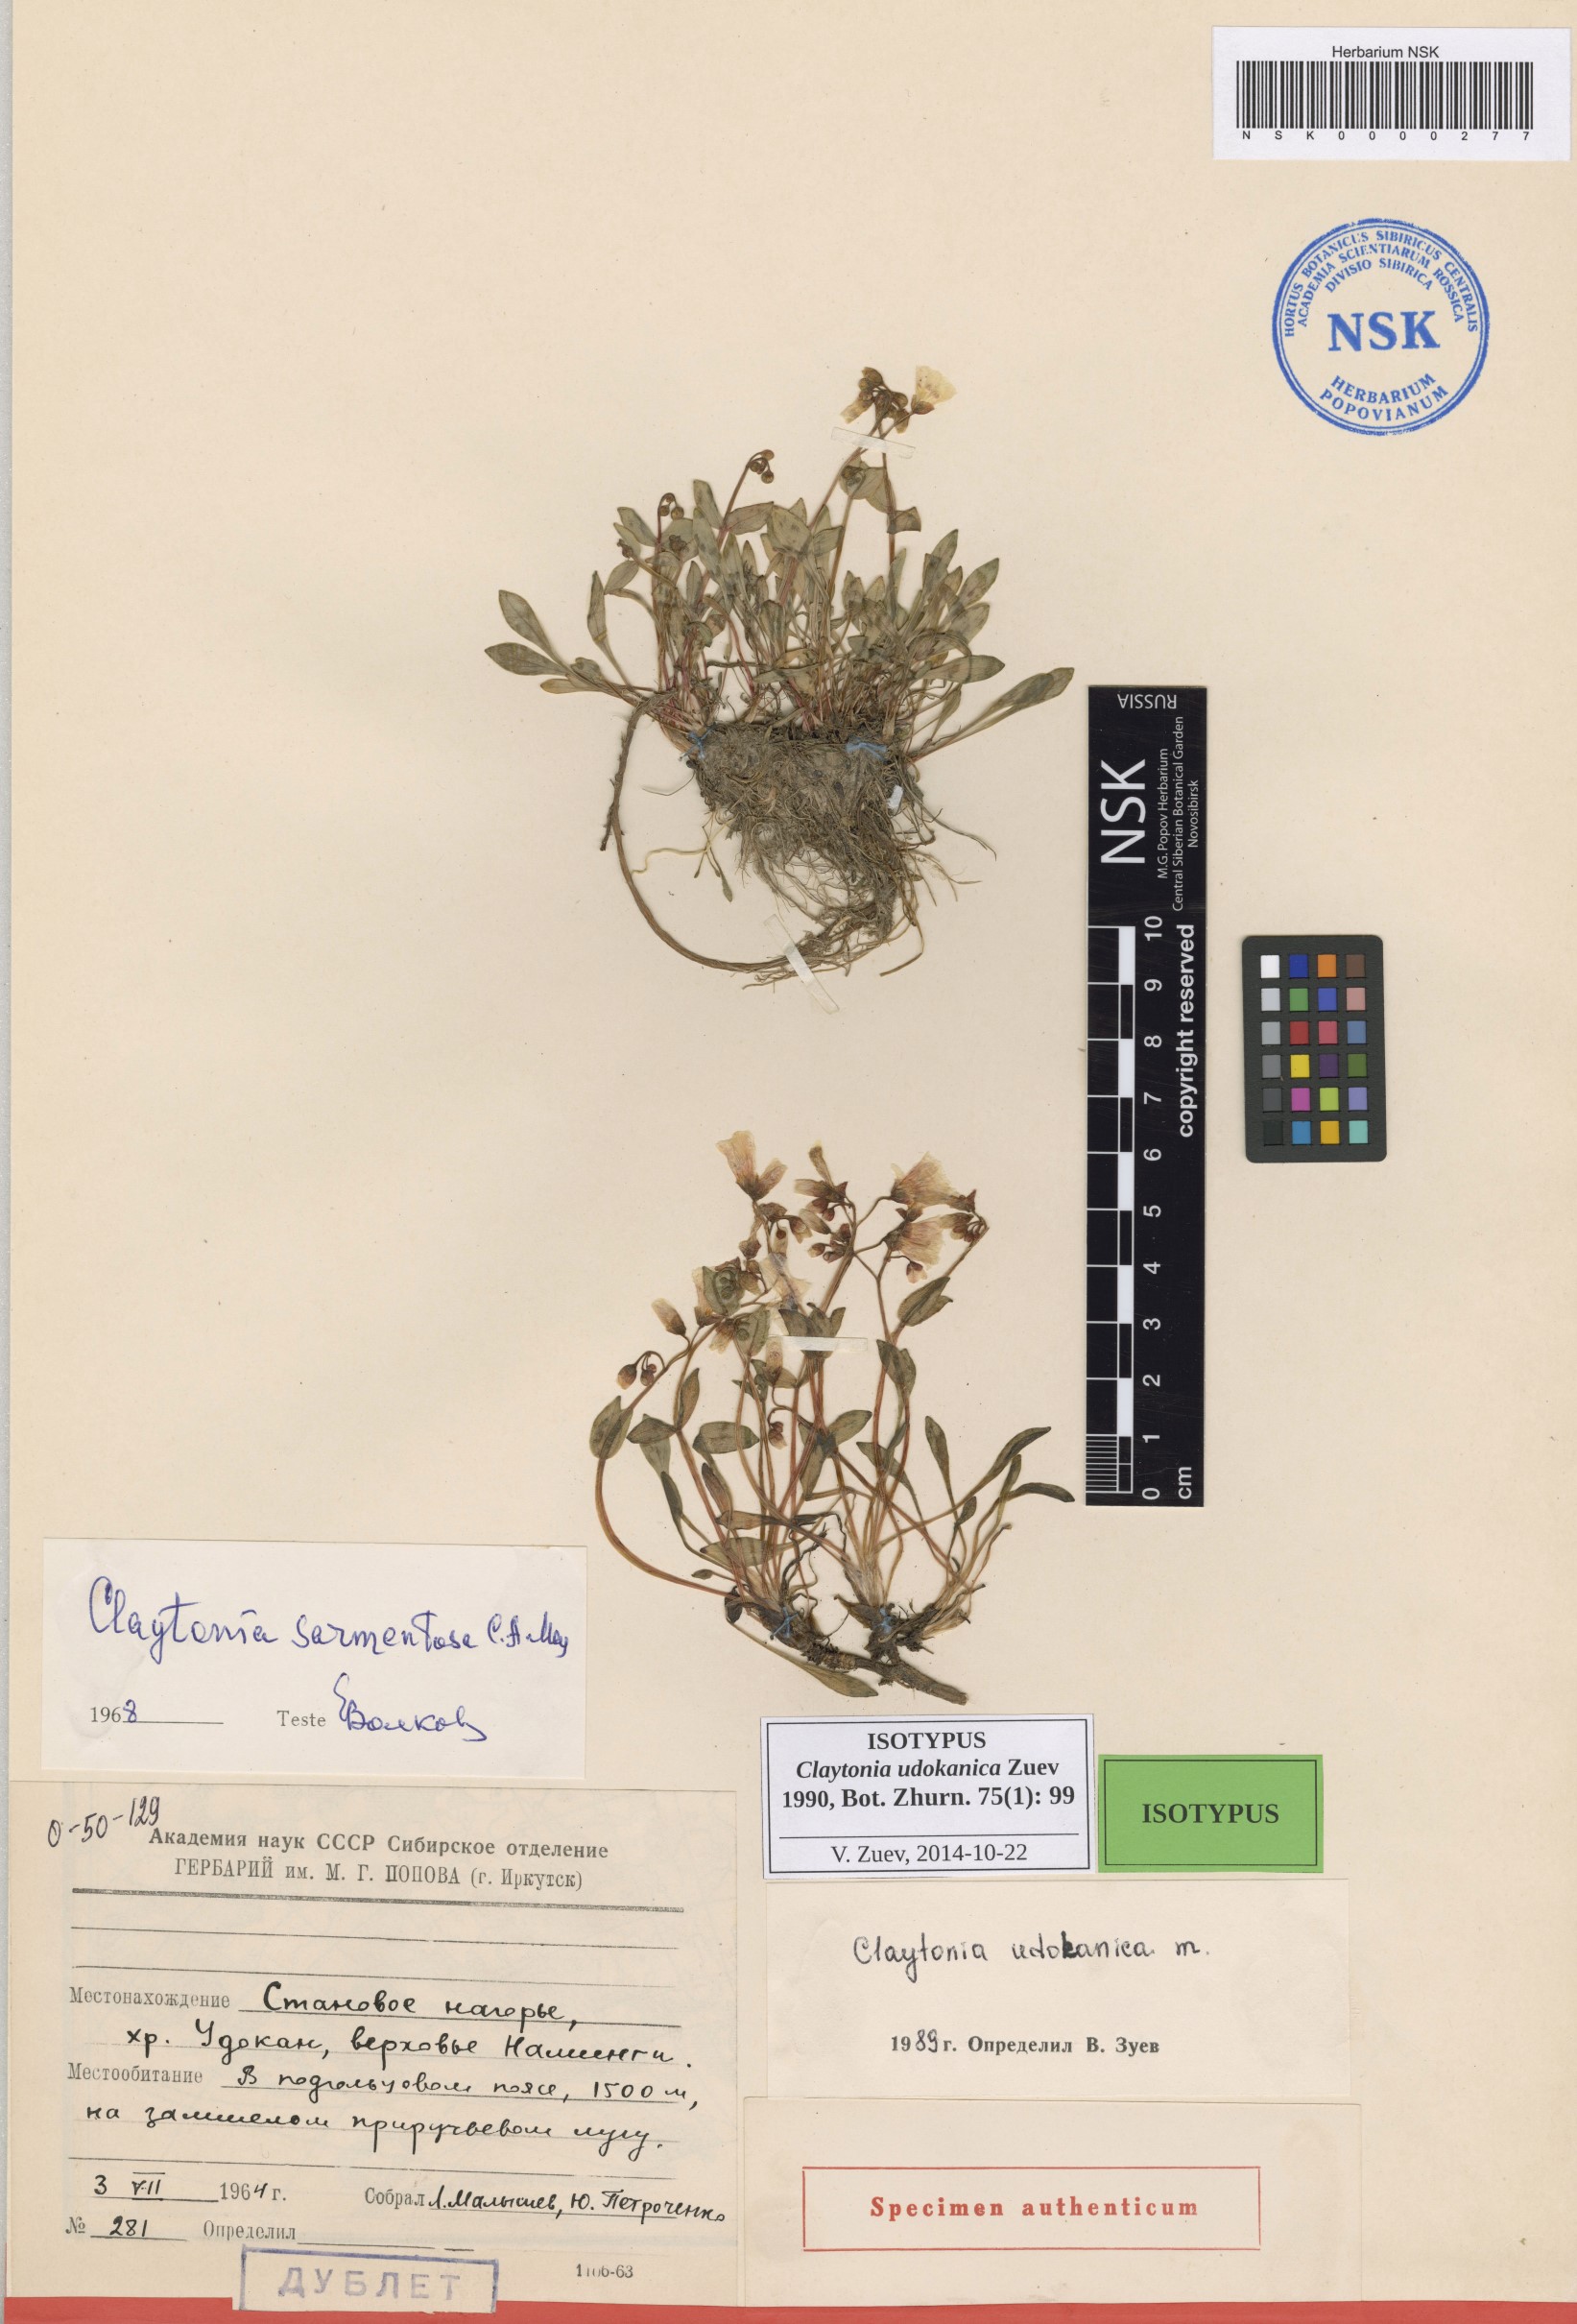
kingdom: Plantae
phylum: Tracheophyta
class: Magnoliopsida
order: Caryophyllales
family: Montiaceae
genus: Claytonia
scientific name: Claytonia udokanica
